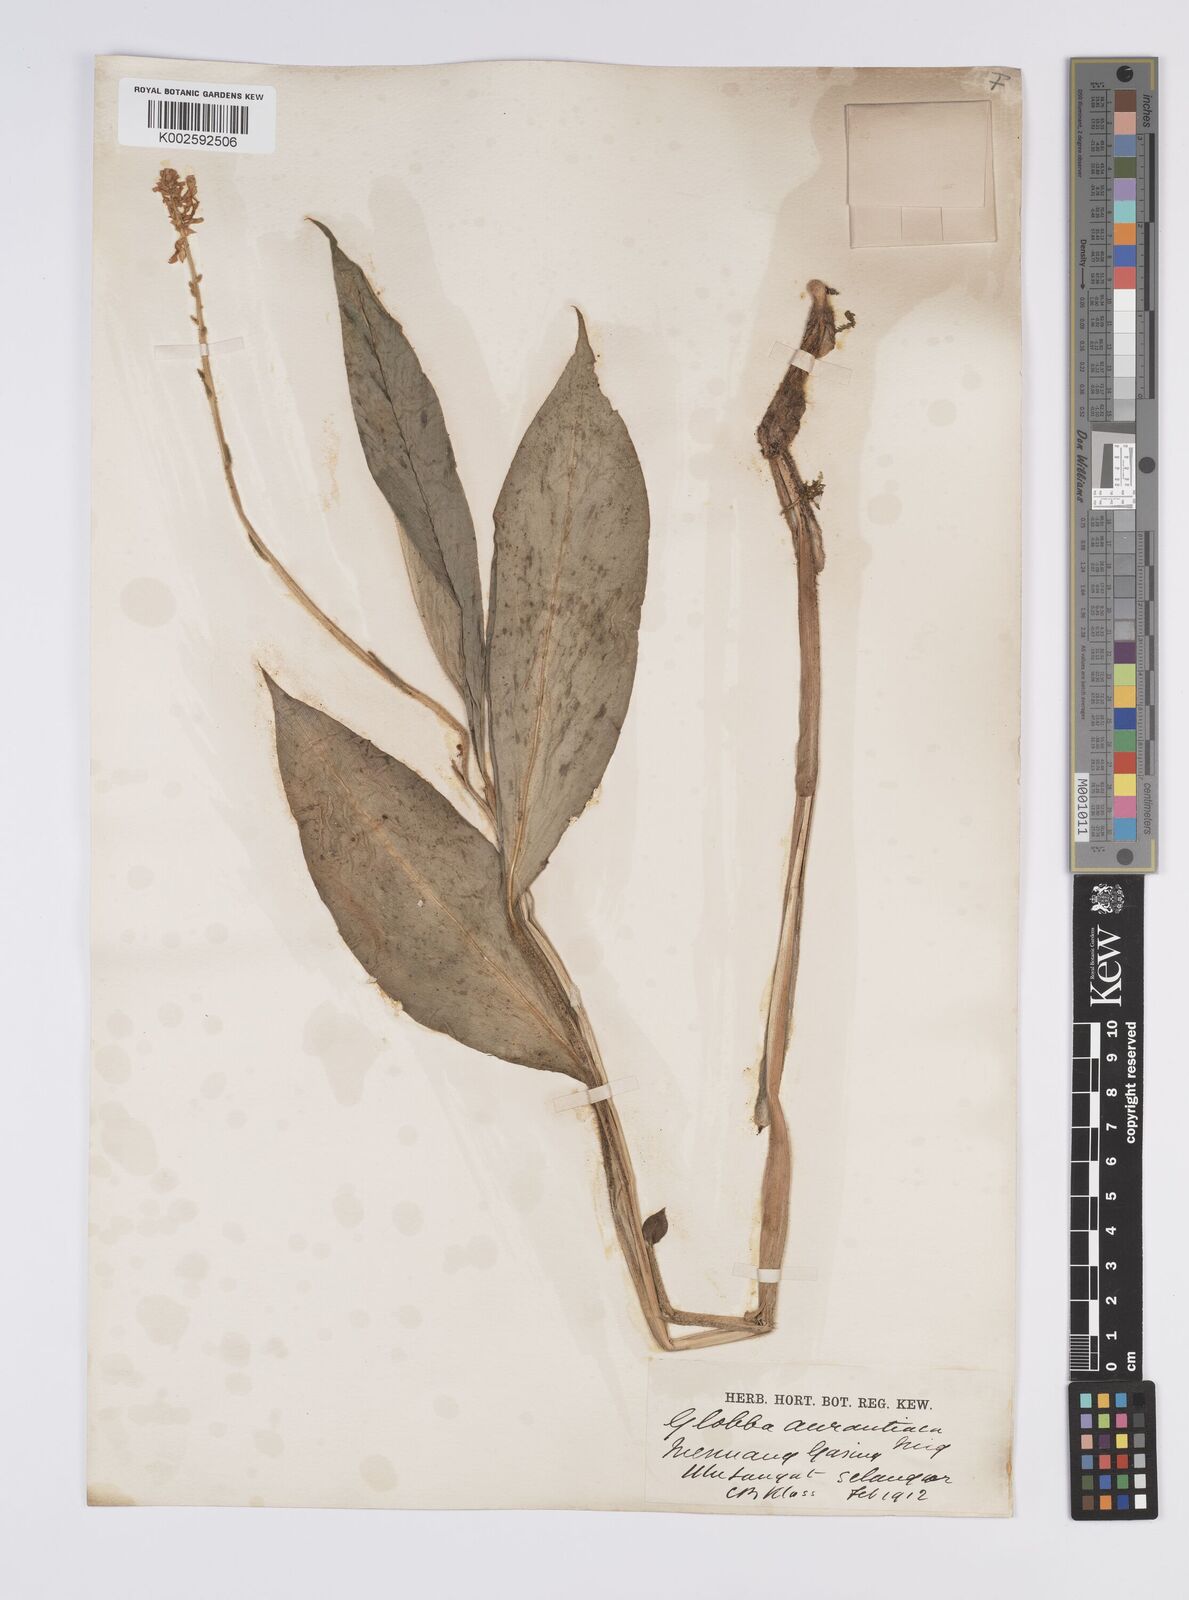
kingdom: Plantae
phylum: Tracheophyta
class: Liliopsida
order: Zingiberales
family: Zingiberaceae
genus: Globba
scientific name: Globba aurantiaca
